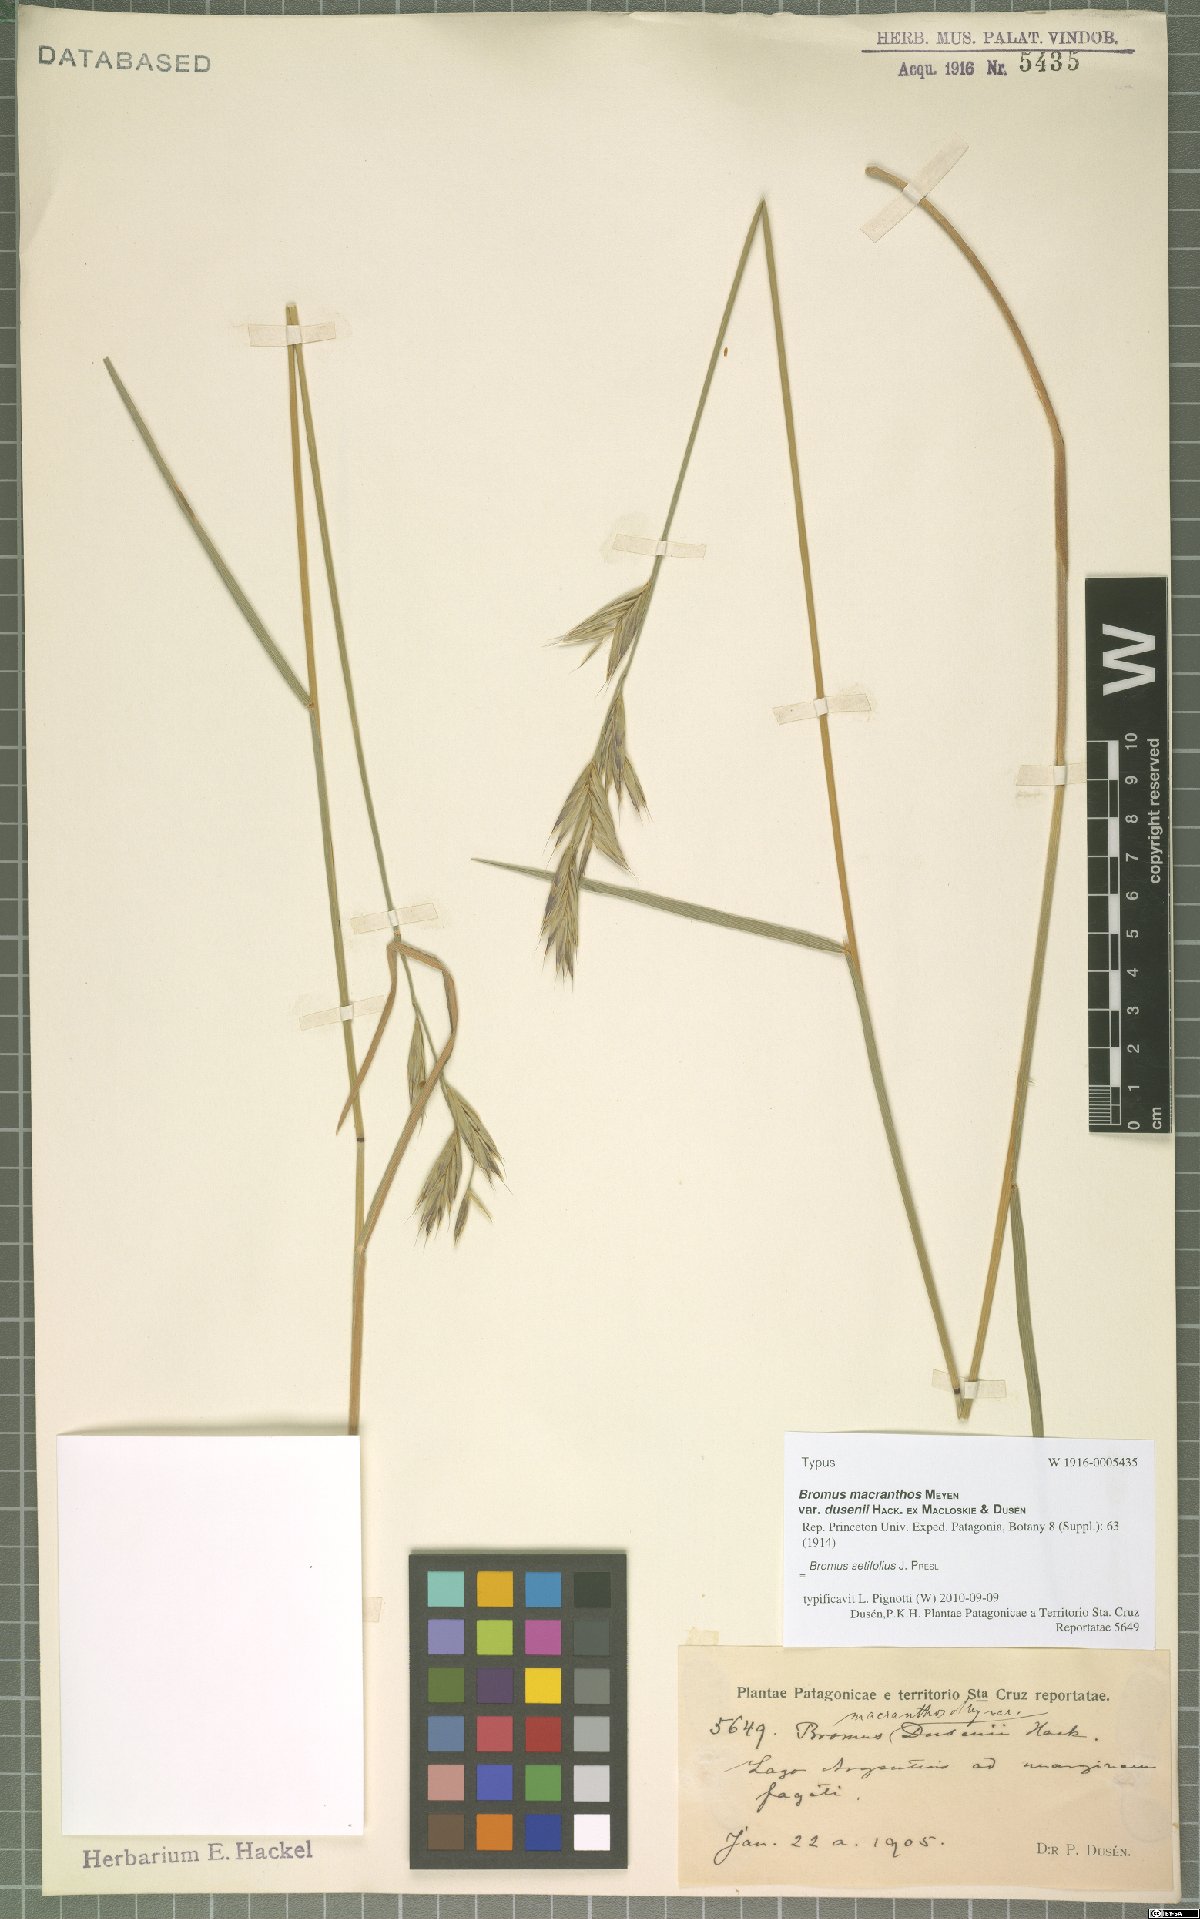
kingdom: Plantae
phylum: Tracheophyta
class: Liliopsida
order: Poales
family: Poaceae
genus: Bromus
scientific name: Bromus setifolius
